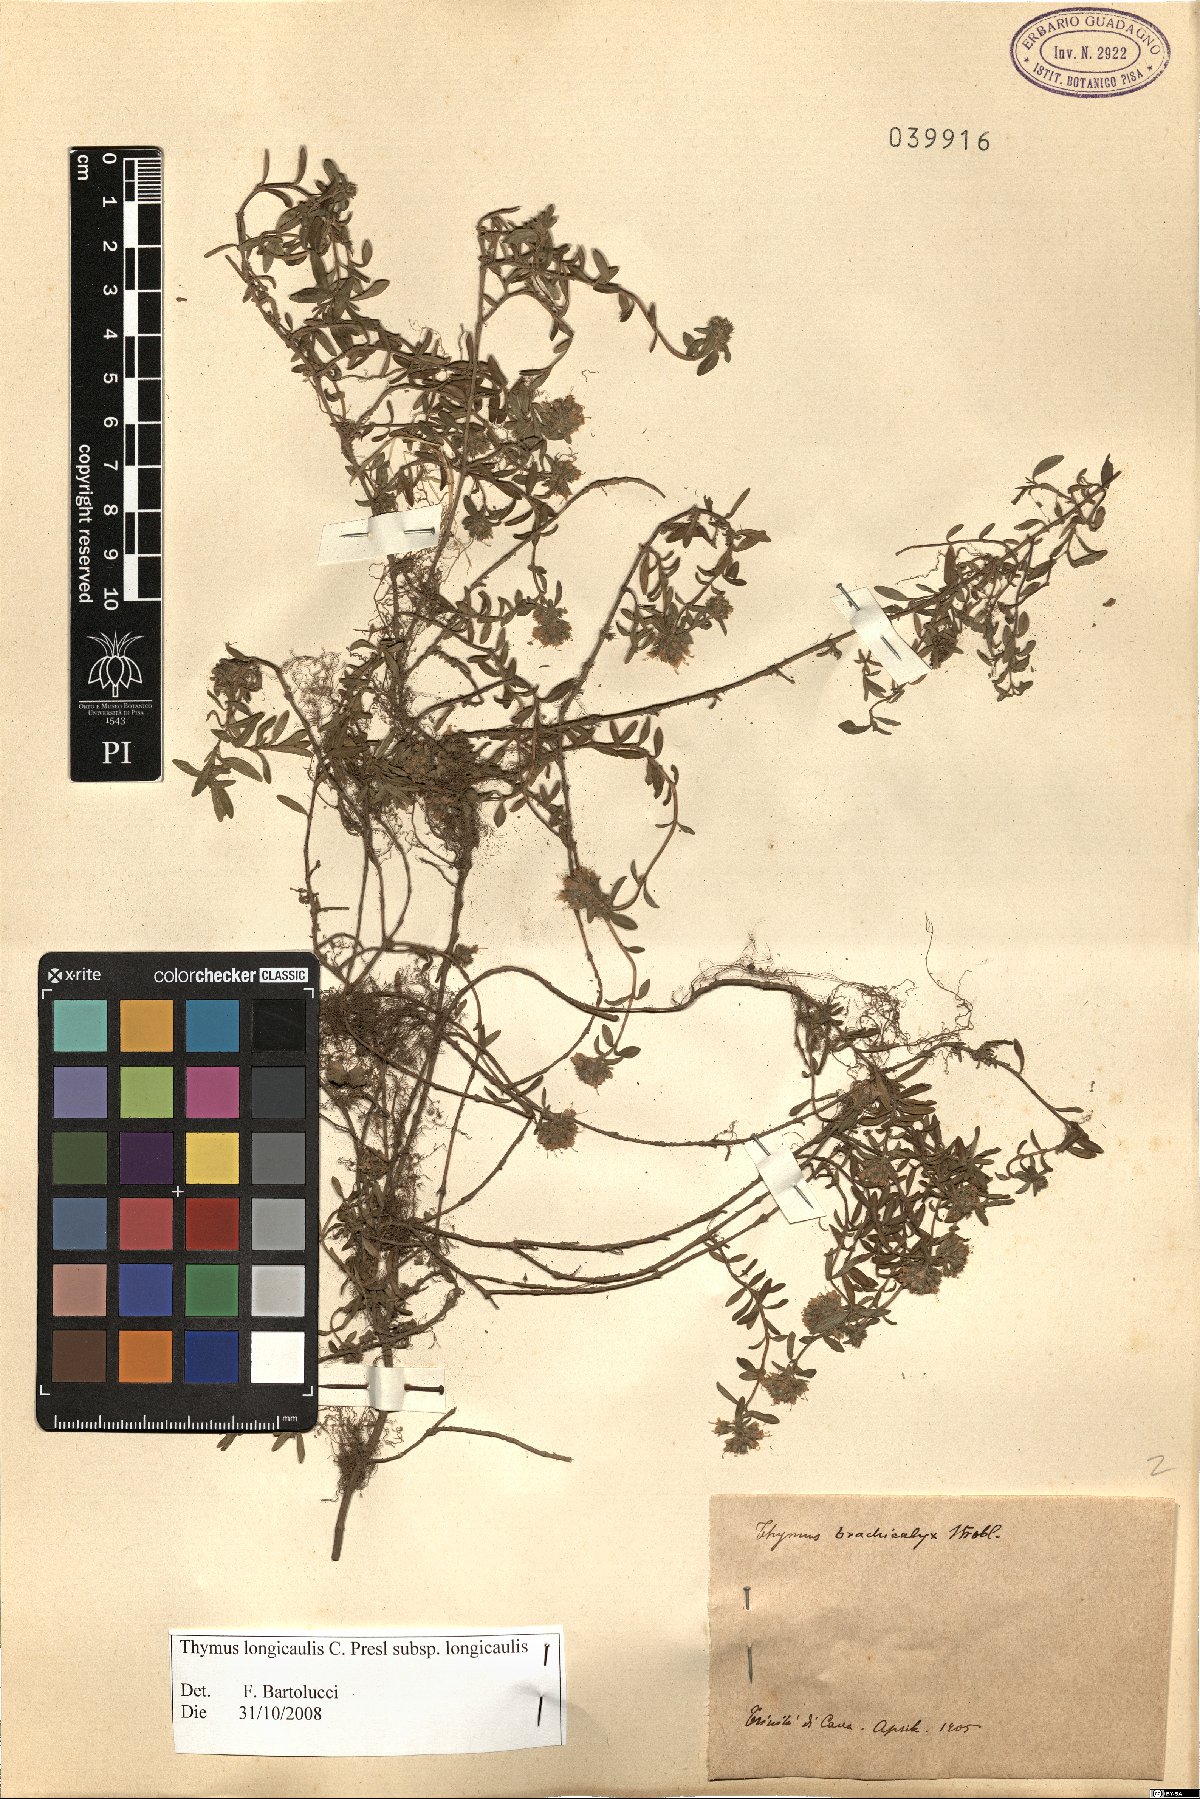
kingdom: Plantae
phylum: Tracheophyta
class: Magnoliopsida
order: Lamiales
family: Lamiaceae
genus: Thymus
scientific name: Thymus longicaulis
